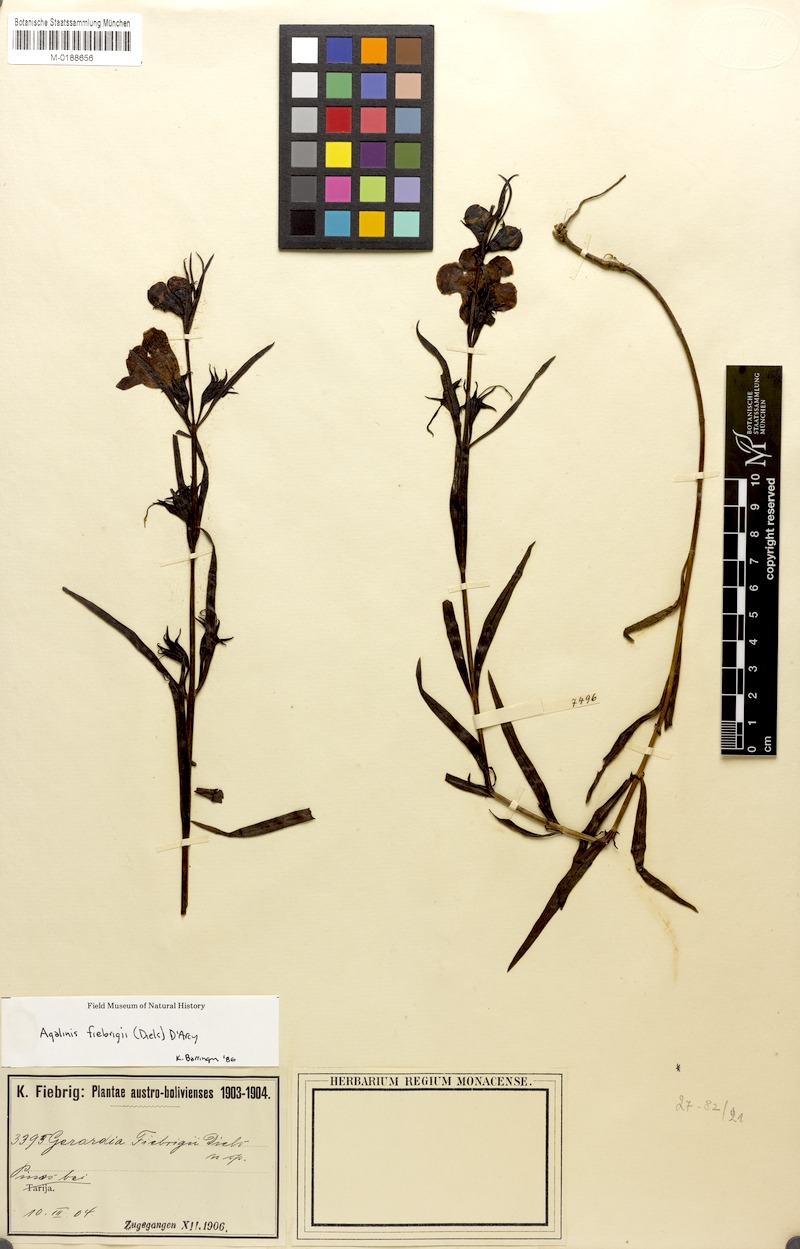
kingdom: Plantae
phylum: Tracheophyta
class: Magnoliopsida
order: Lamiales
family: Orobanchaceae
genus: Agalinis
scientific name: Agalinis fiebrigii
